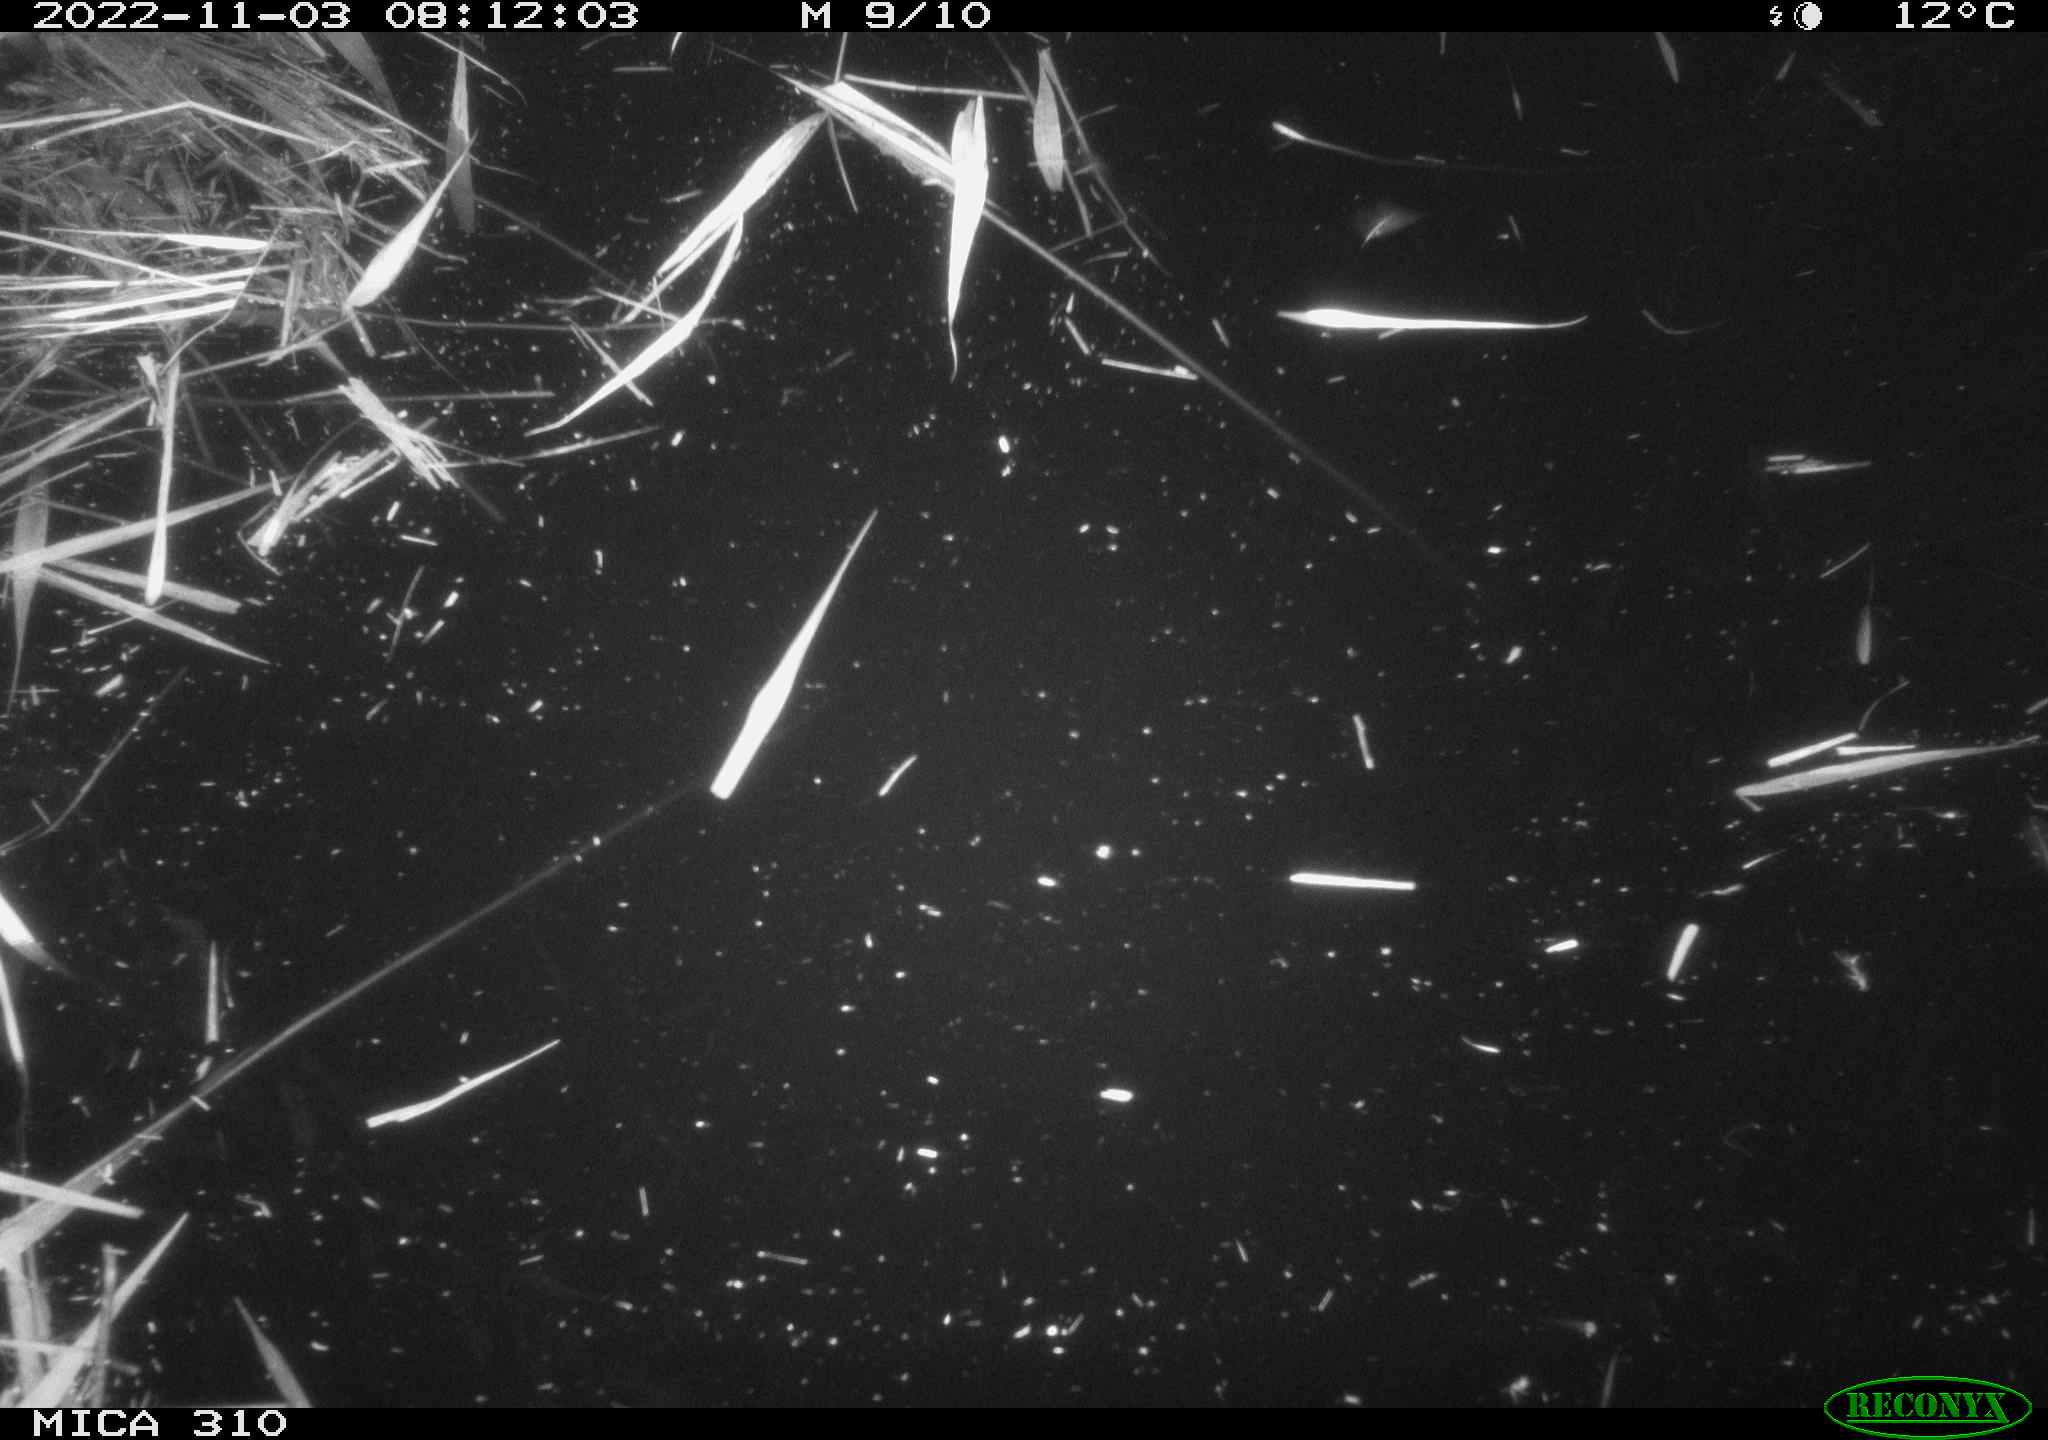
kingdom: Animalia
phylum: Chordata
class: Aves
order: Gruiformes
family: Rallidae
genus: Gallinula
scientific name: Gallinula chloropus
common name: Common moorhen
